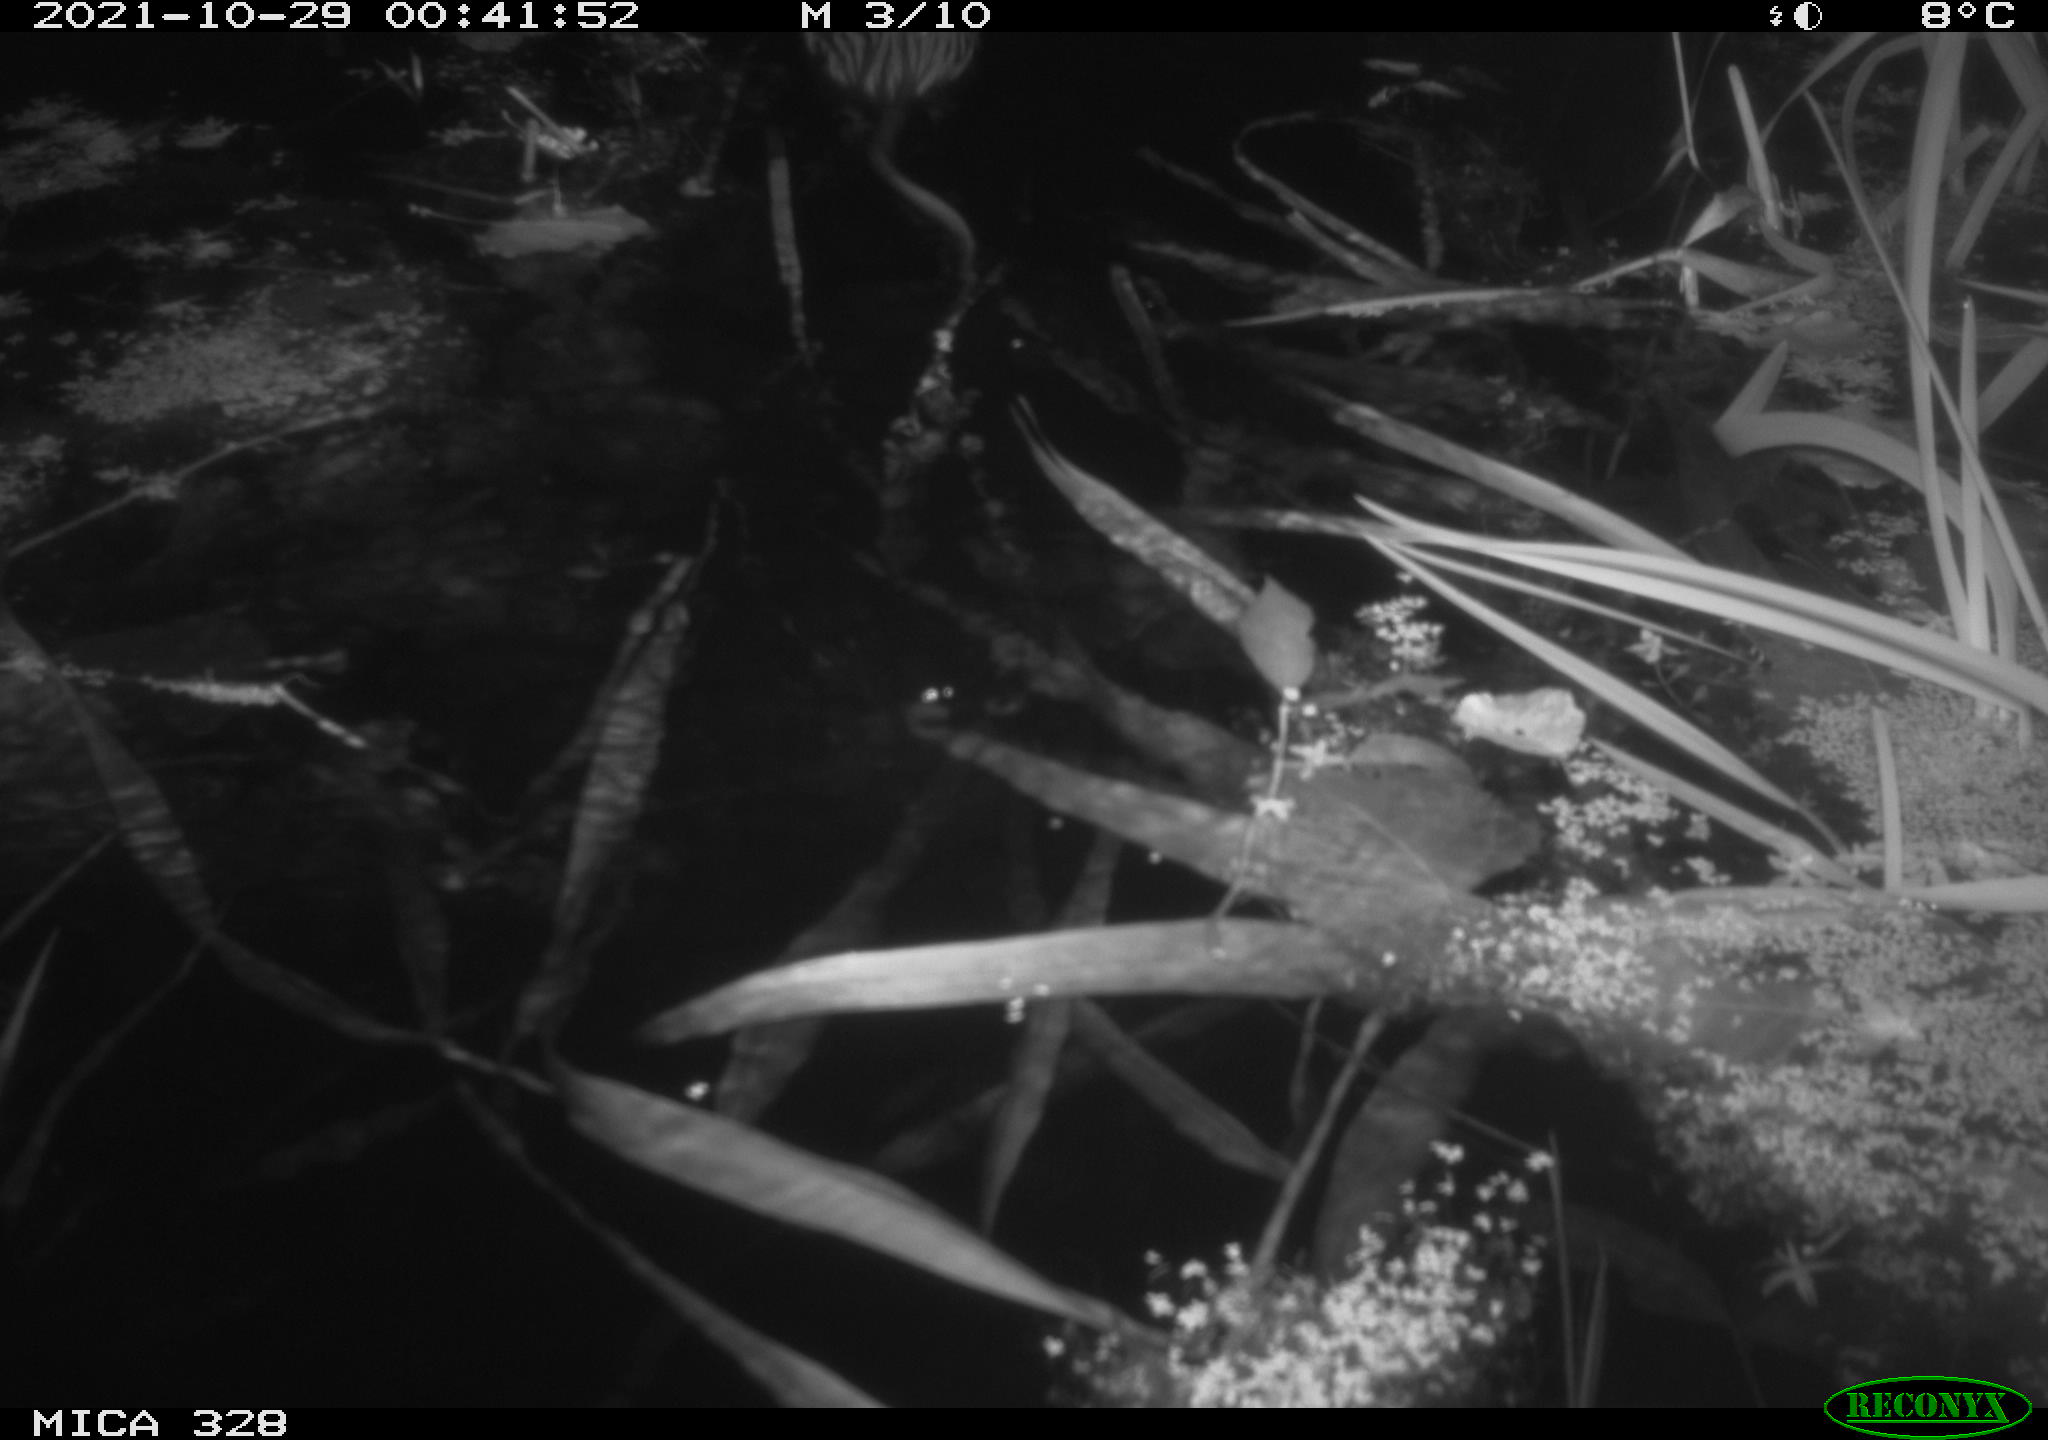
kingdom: Animalia
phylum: Chordata
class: Mammalia
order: Rodentia
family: Cricetidae
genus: Ondatra
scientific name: Ondatra zibethicus
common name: Muskrat
